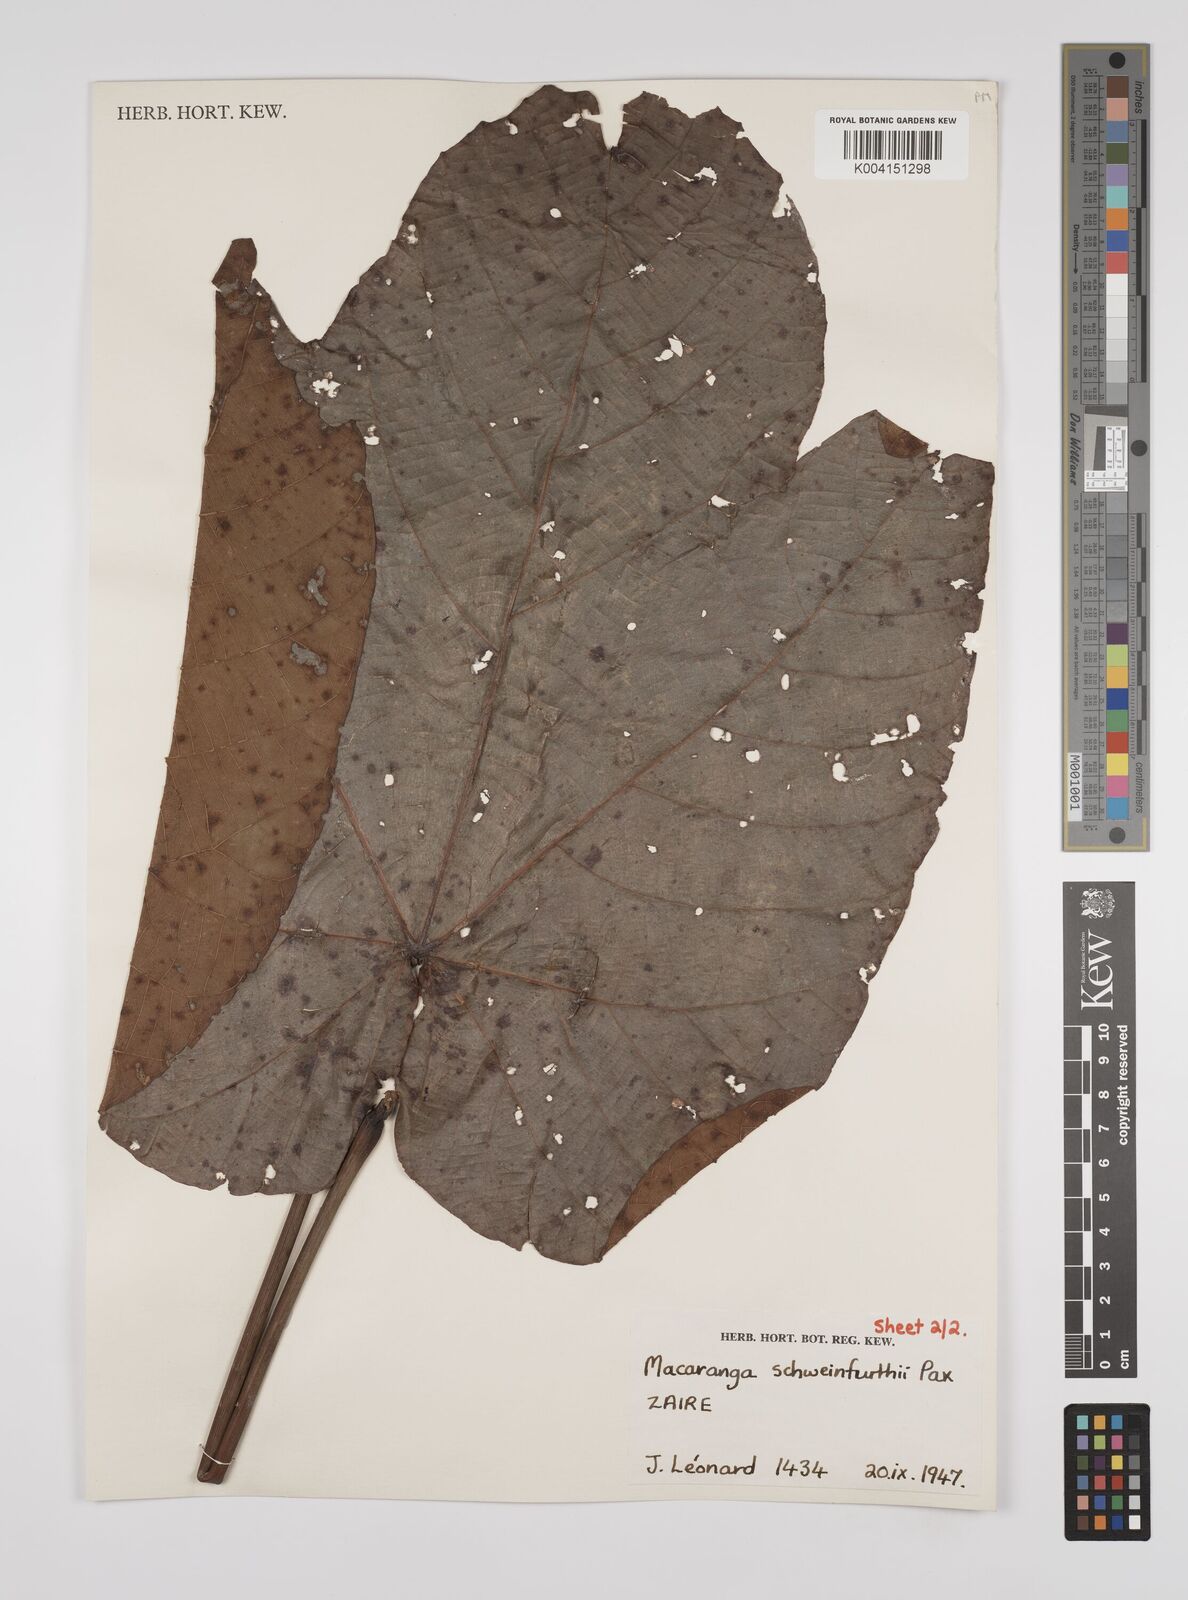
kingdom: Plantae
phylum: Tracheophyta
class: Magnoliopsida
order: Malpighiales
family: Euphorbiaceae
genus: Macaranga
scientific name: Macaranga schweinfurthii
